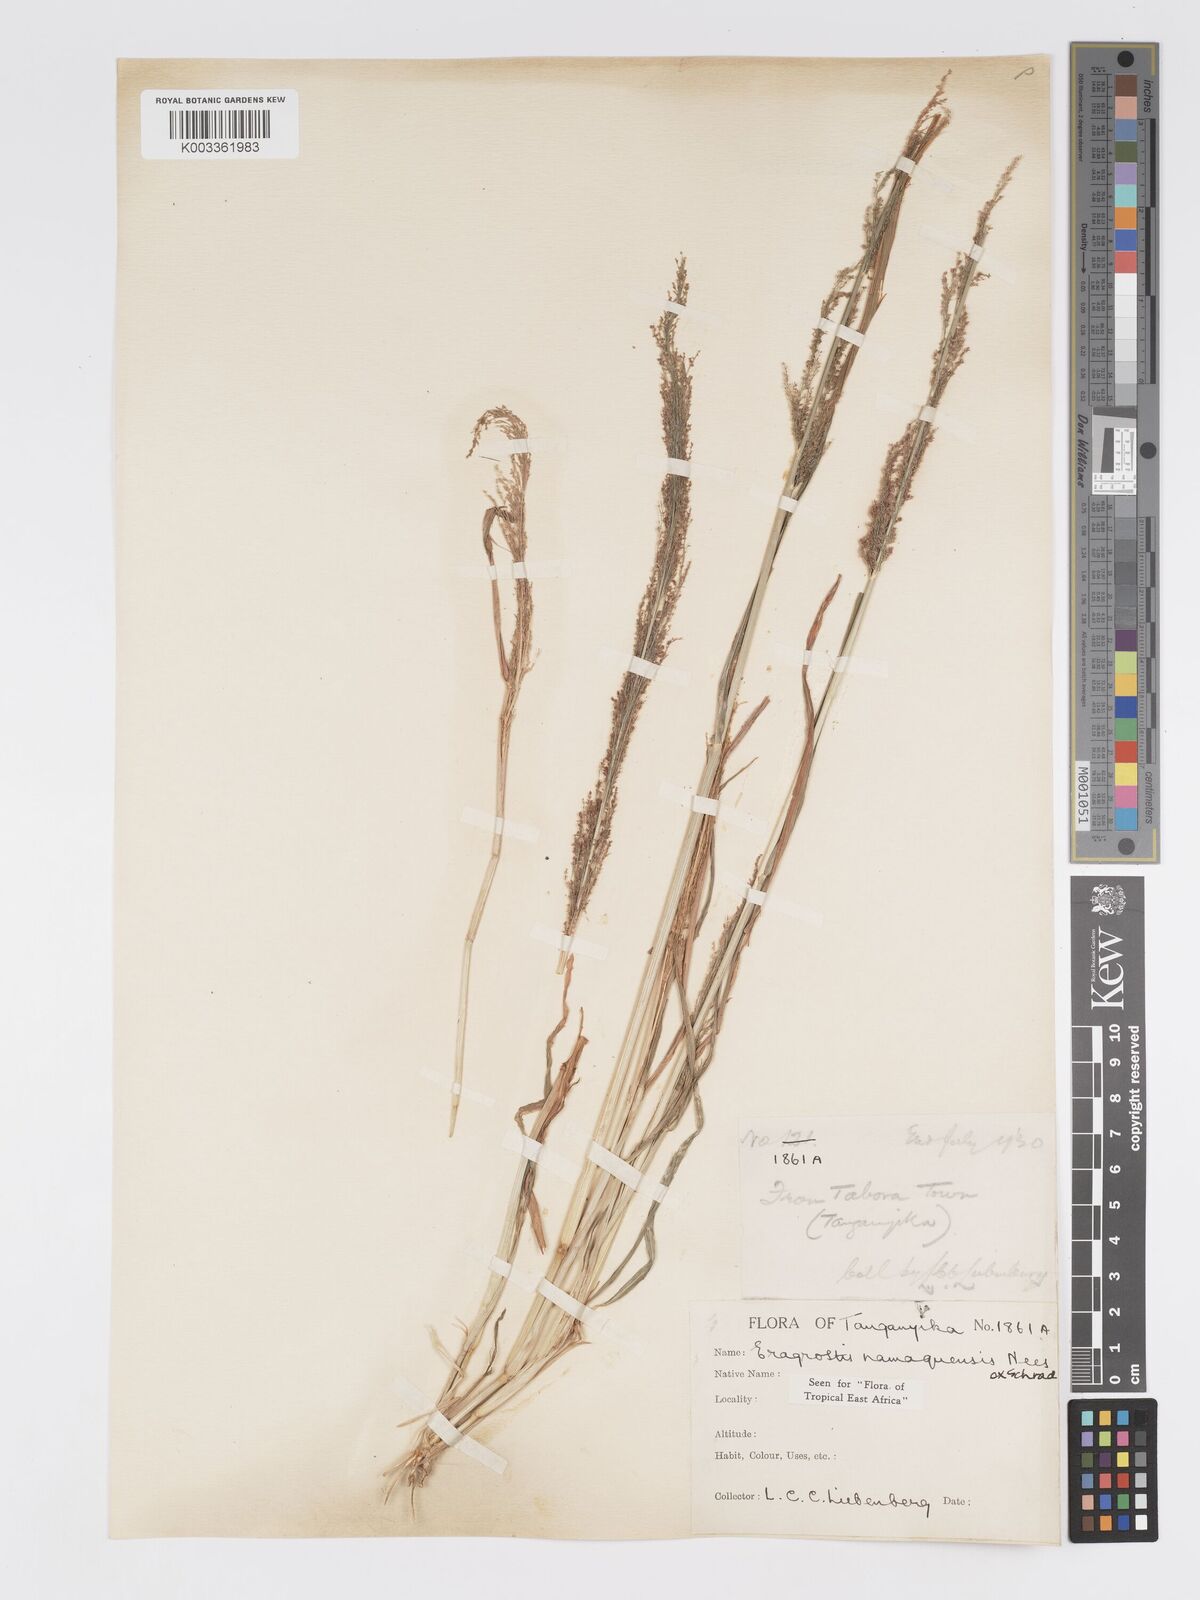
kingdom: Plantae
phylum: Tracheophyta
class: Liliopsida
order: Poales
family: Poaceae
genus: Eragrostis
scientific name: Eragrostis japonica
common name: Pond lovegrass
